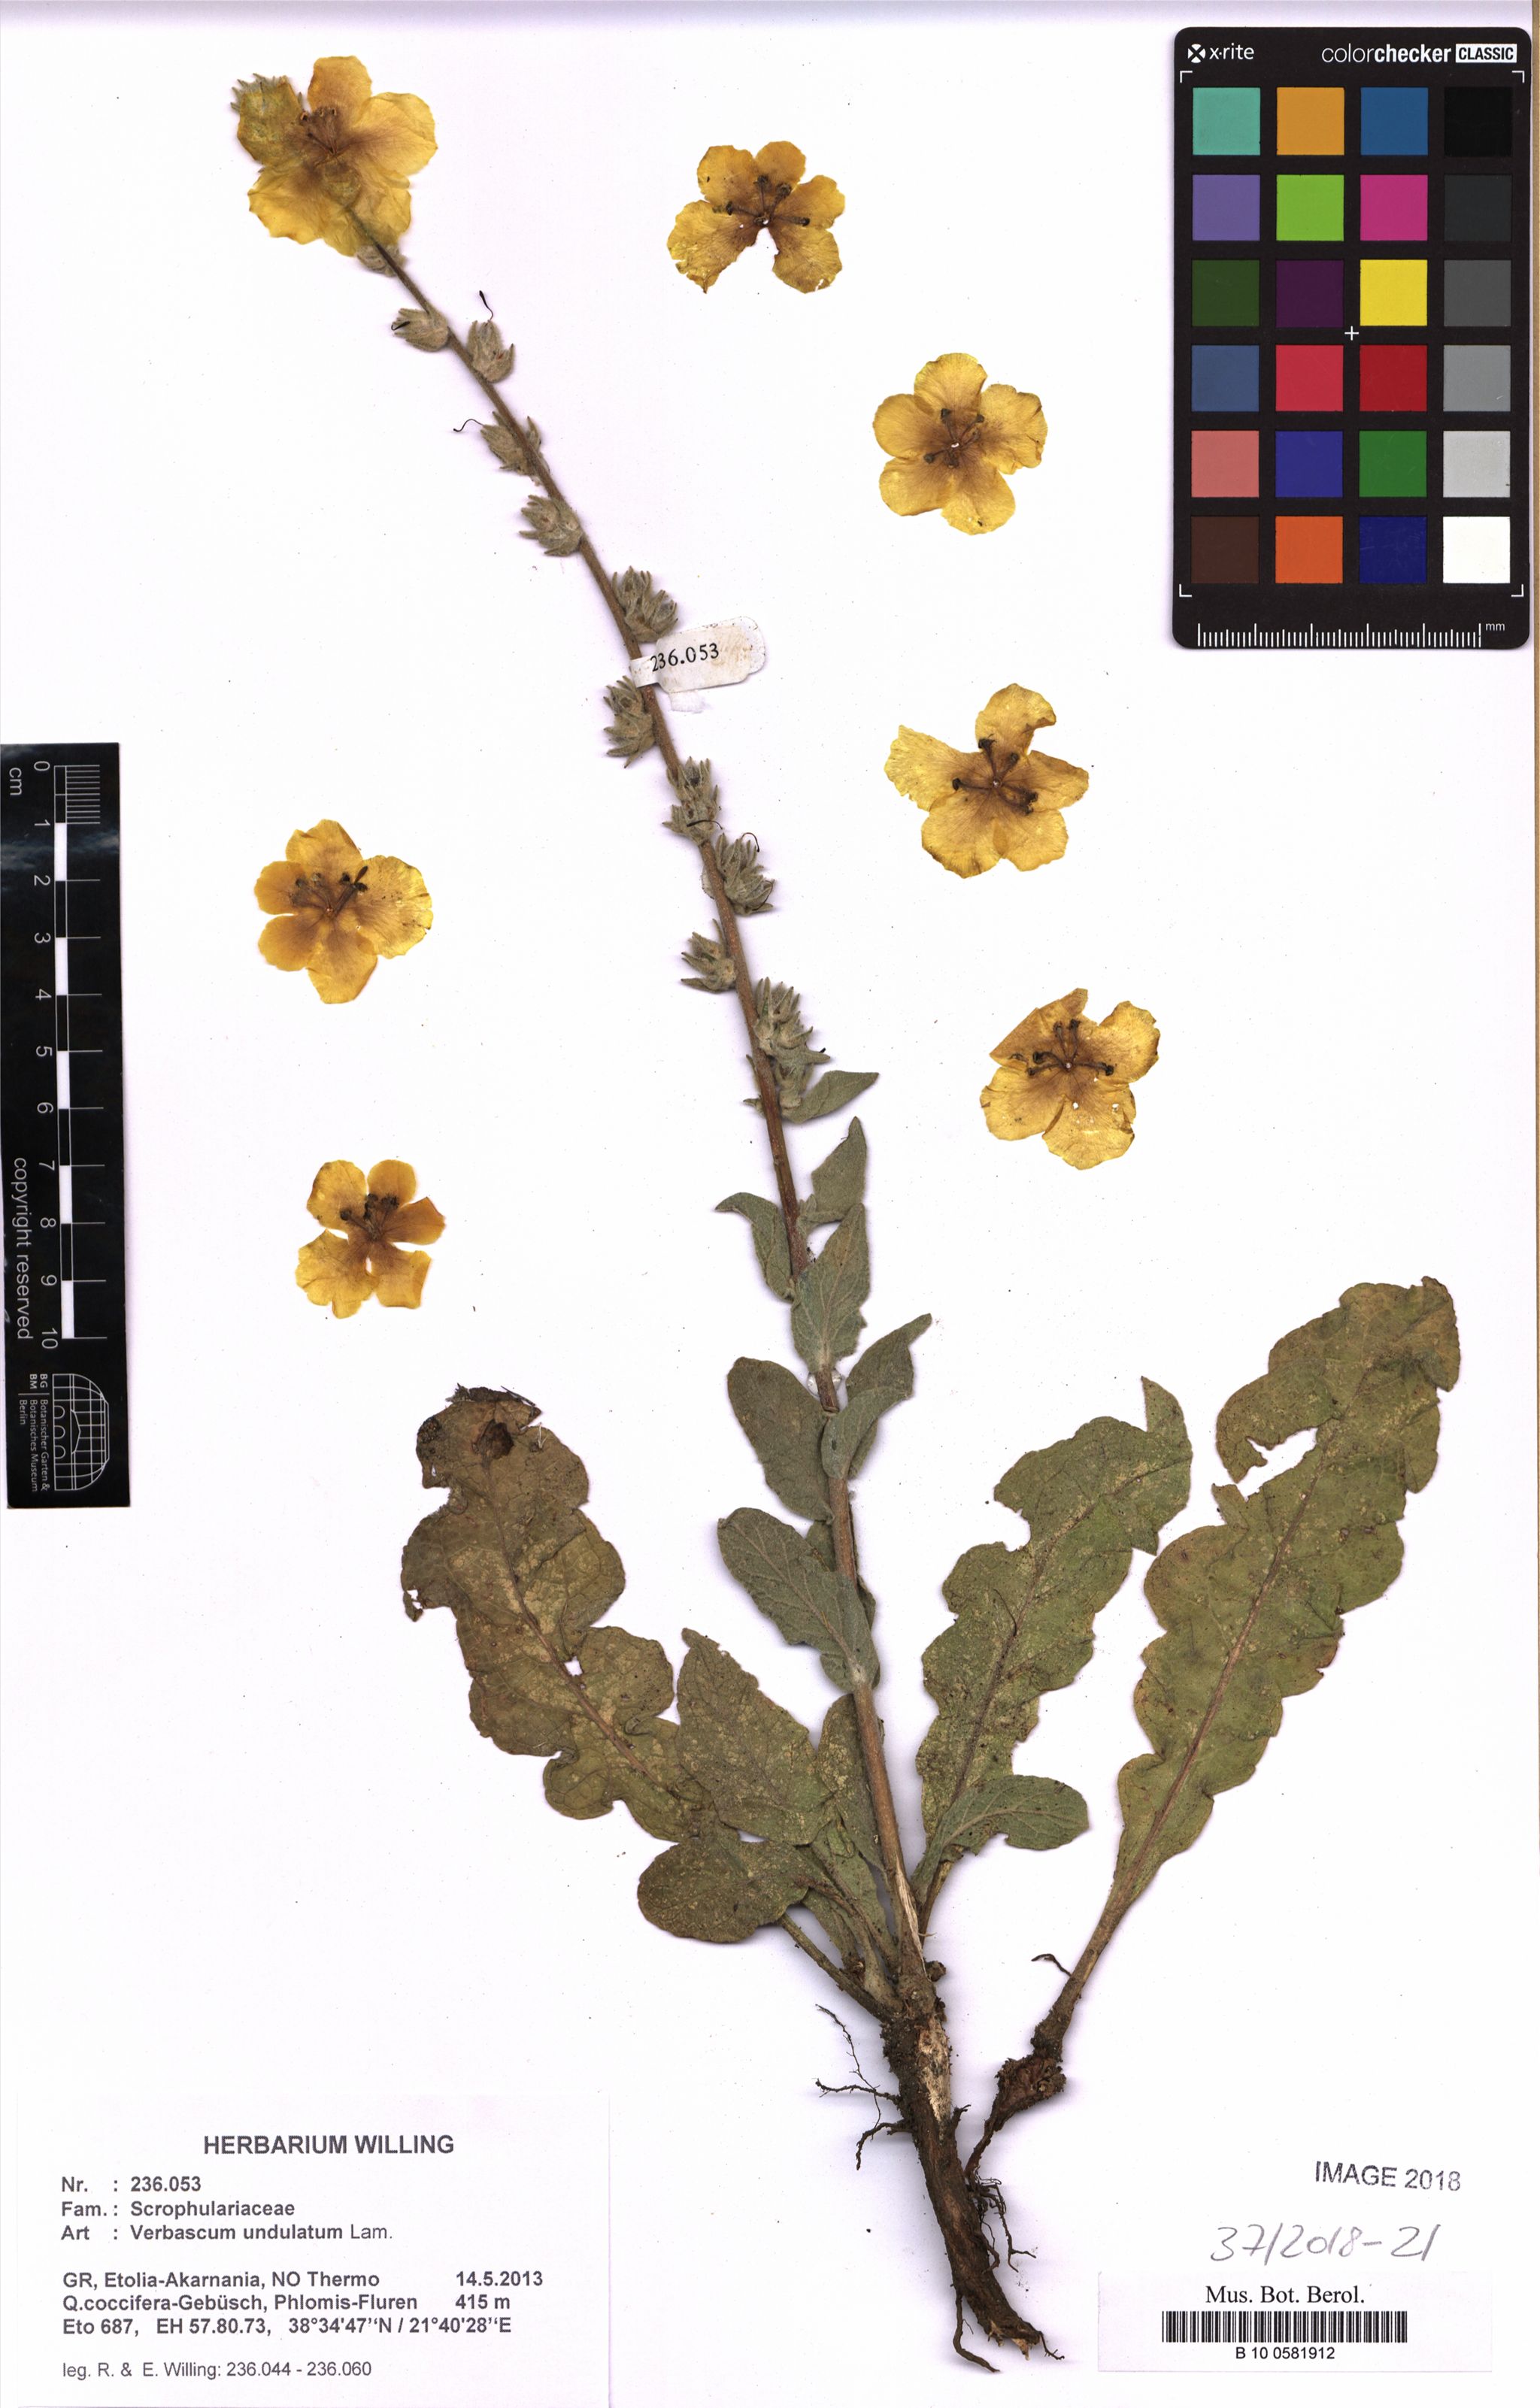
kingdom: Plantae
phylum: Tracheophyta
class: Magnoliopsida
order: Lamiales
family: Scrophulariaceae
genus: Verbascum
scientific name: Verbascum undulatum
